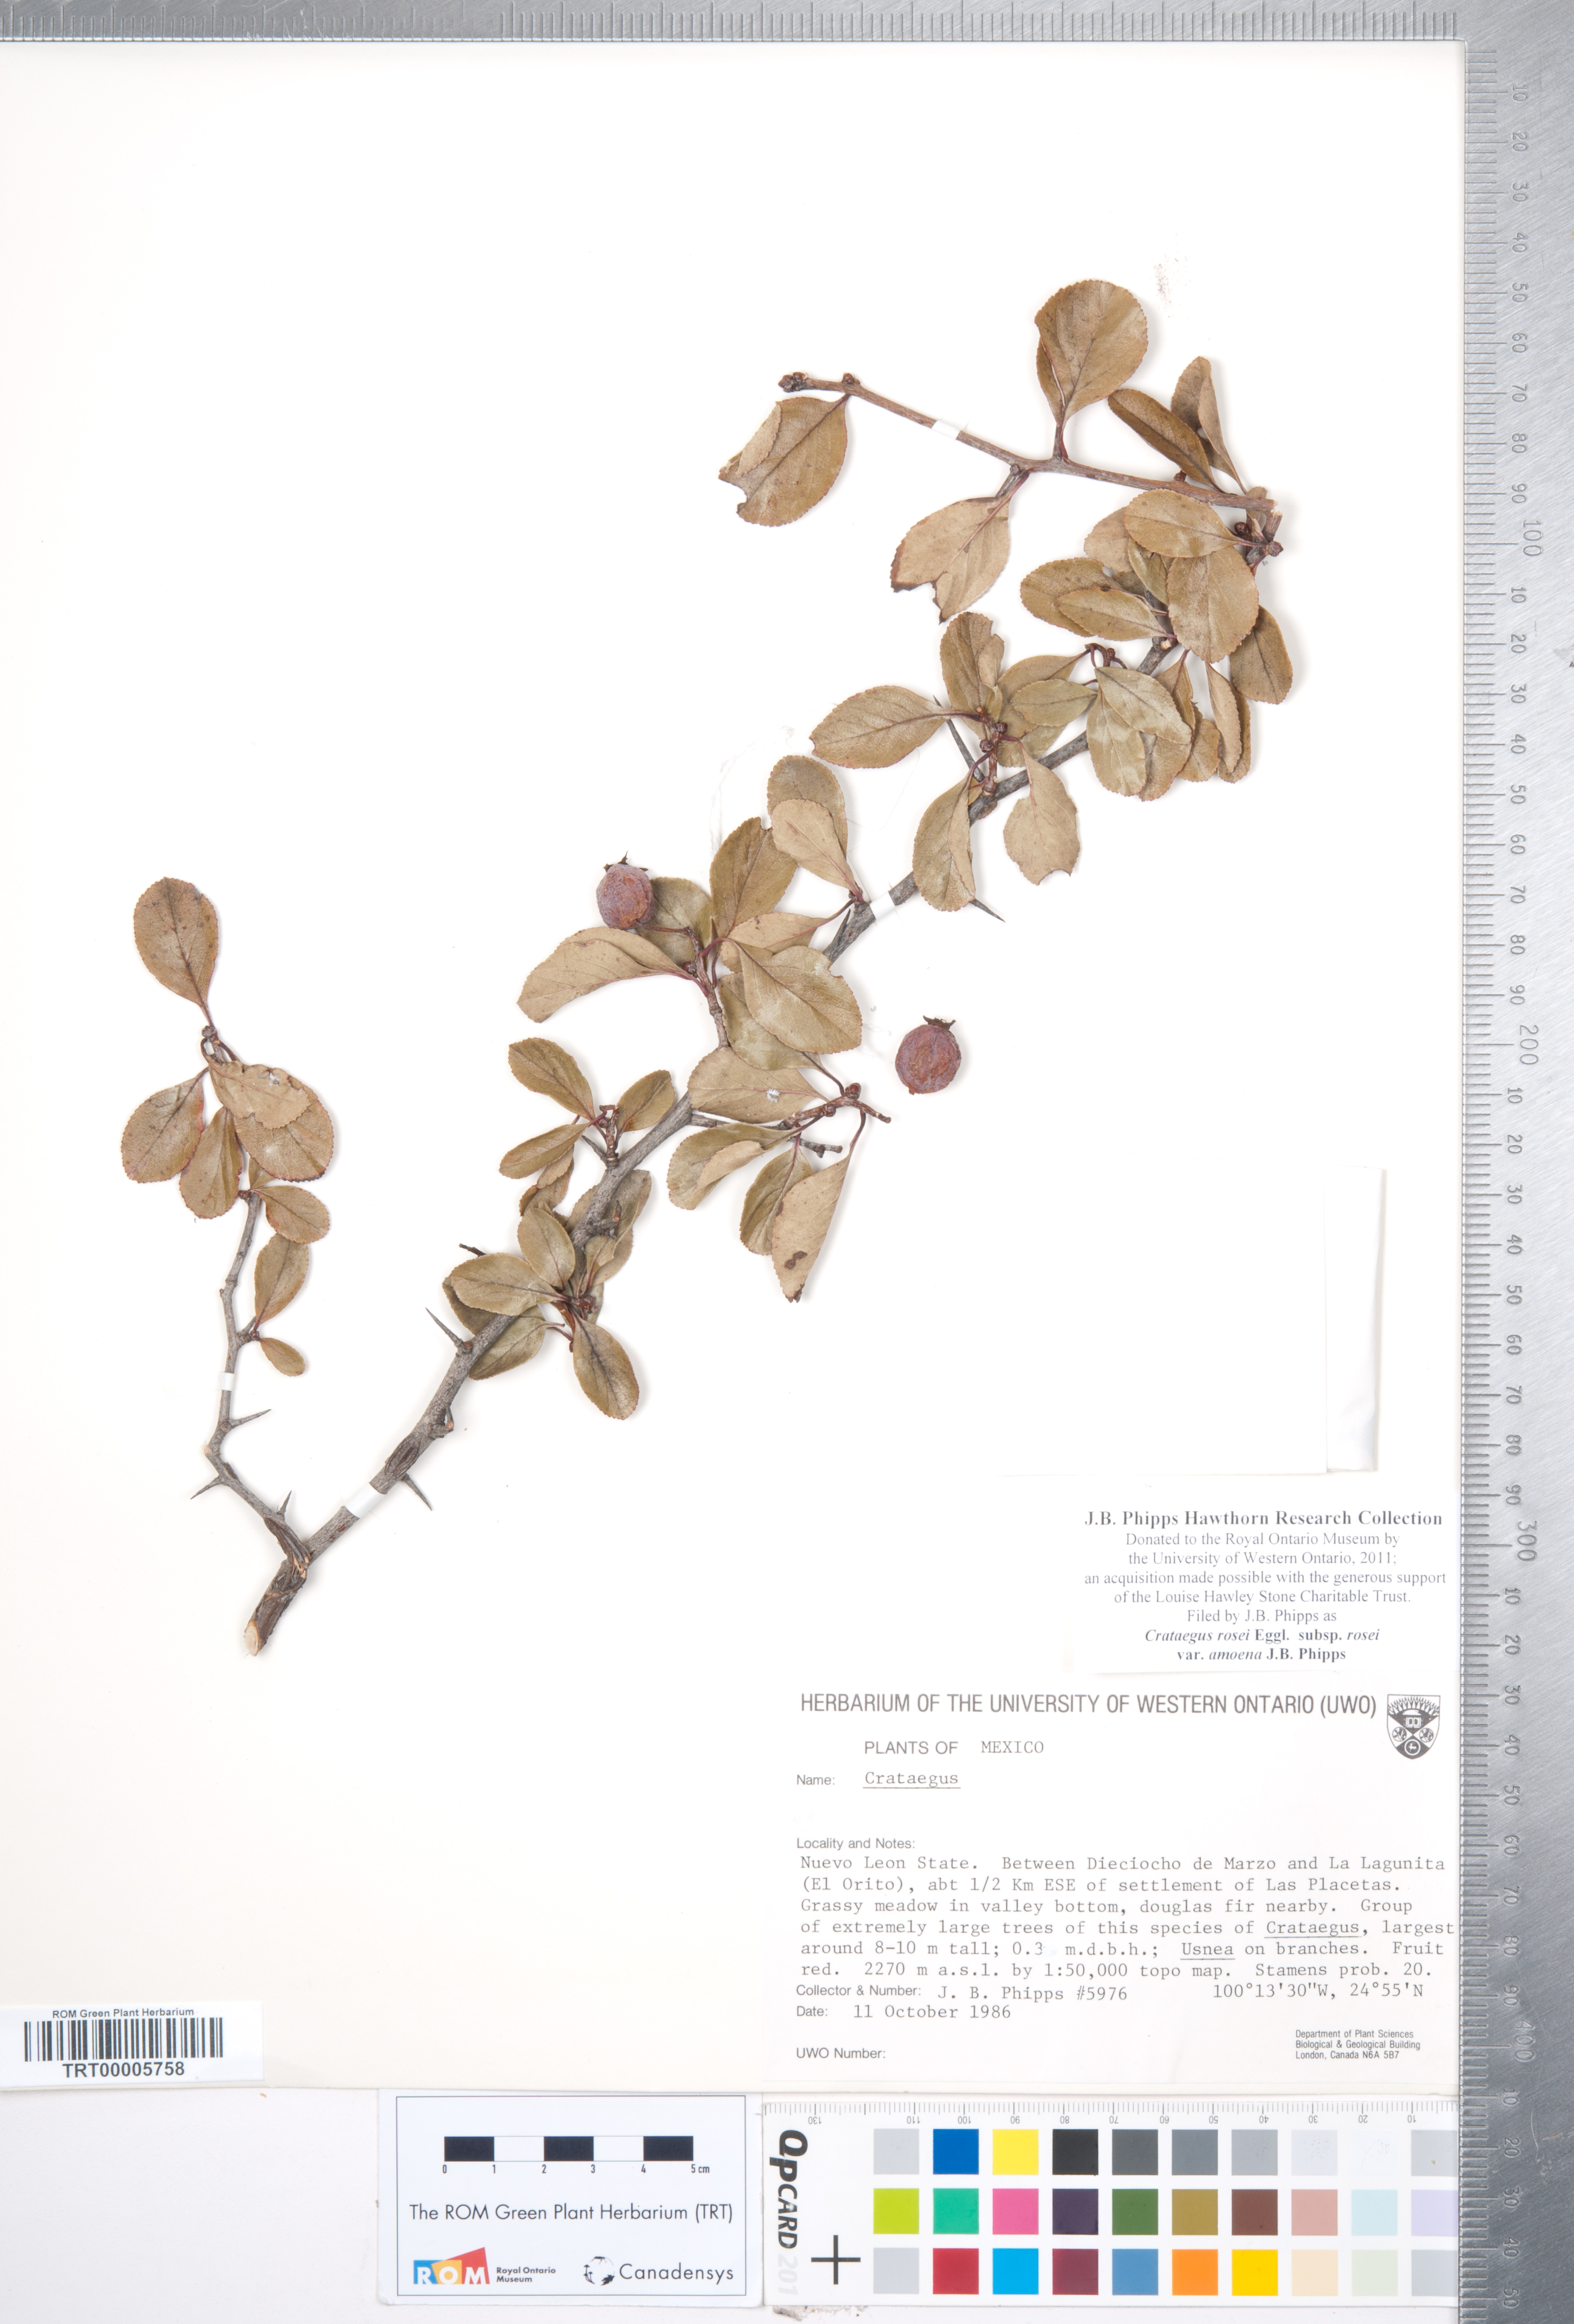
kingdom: Plantae
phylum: Tracheophyta
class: Magnoliopsida
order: Rosales
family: Rosaceae
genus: Crataegus
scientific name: Crataegus rosei
